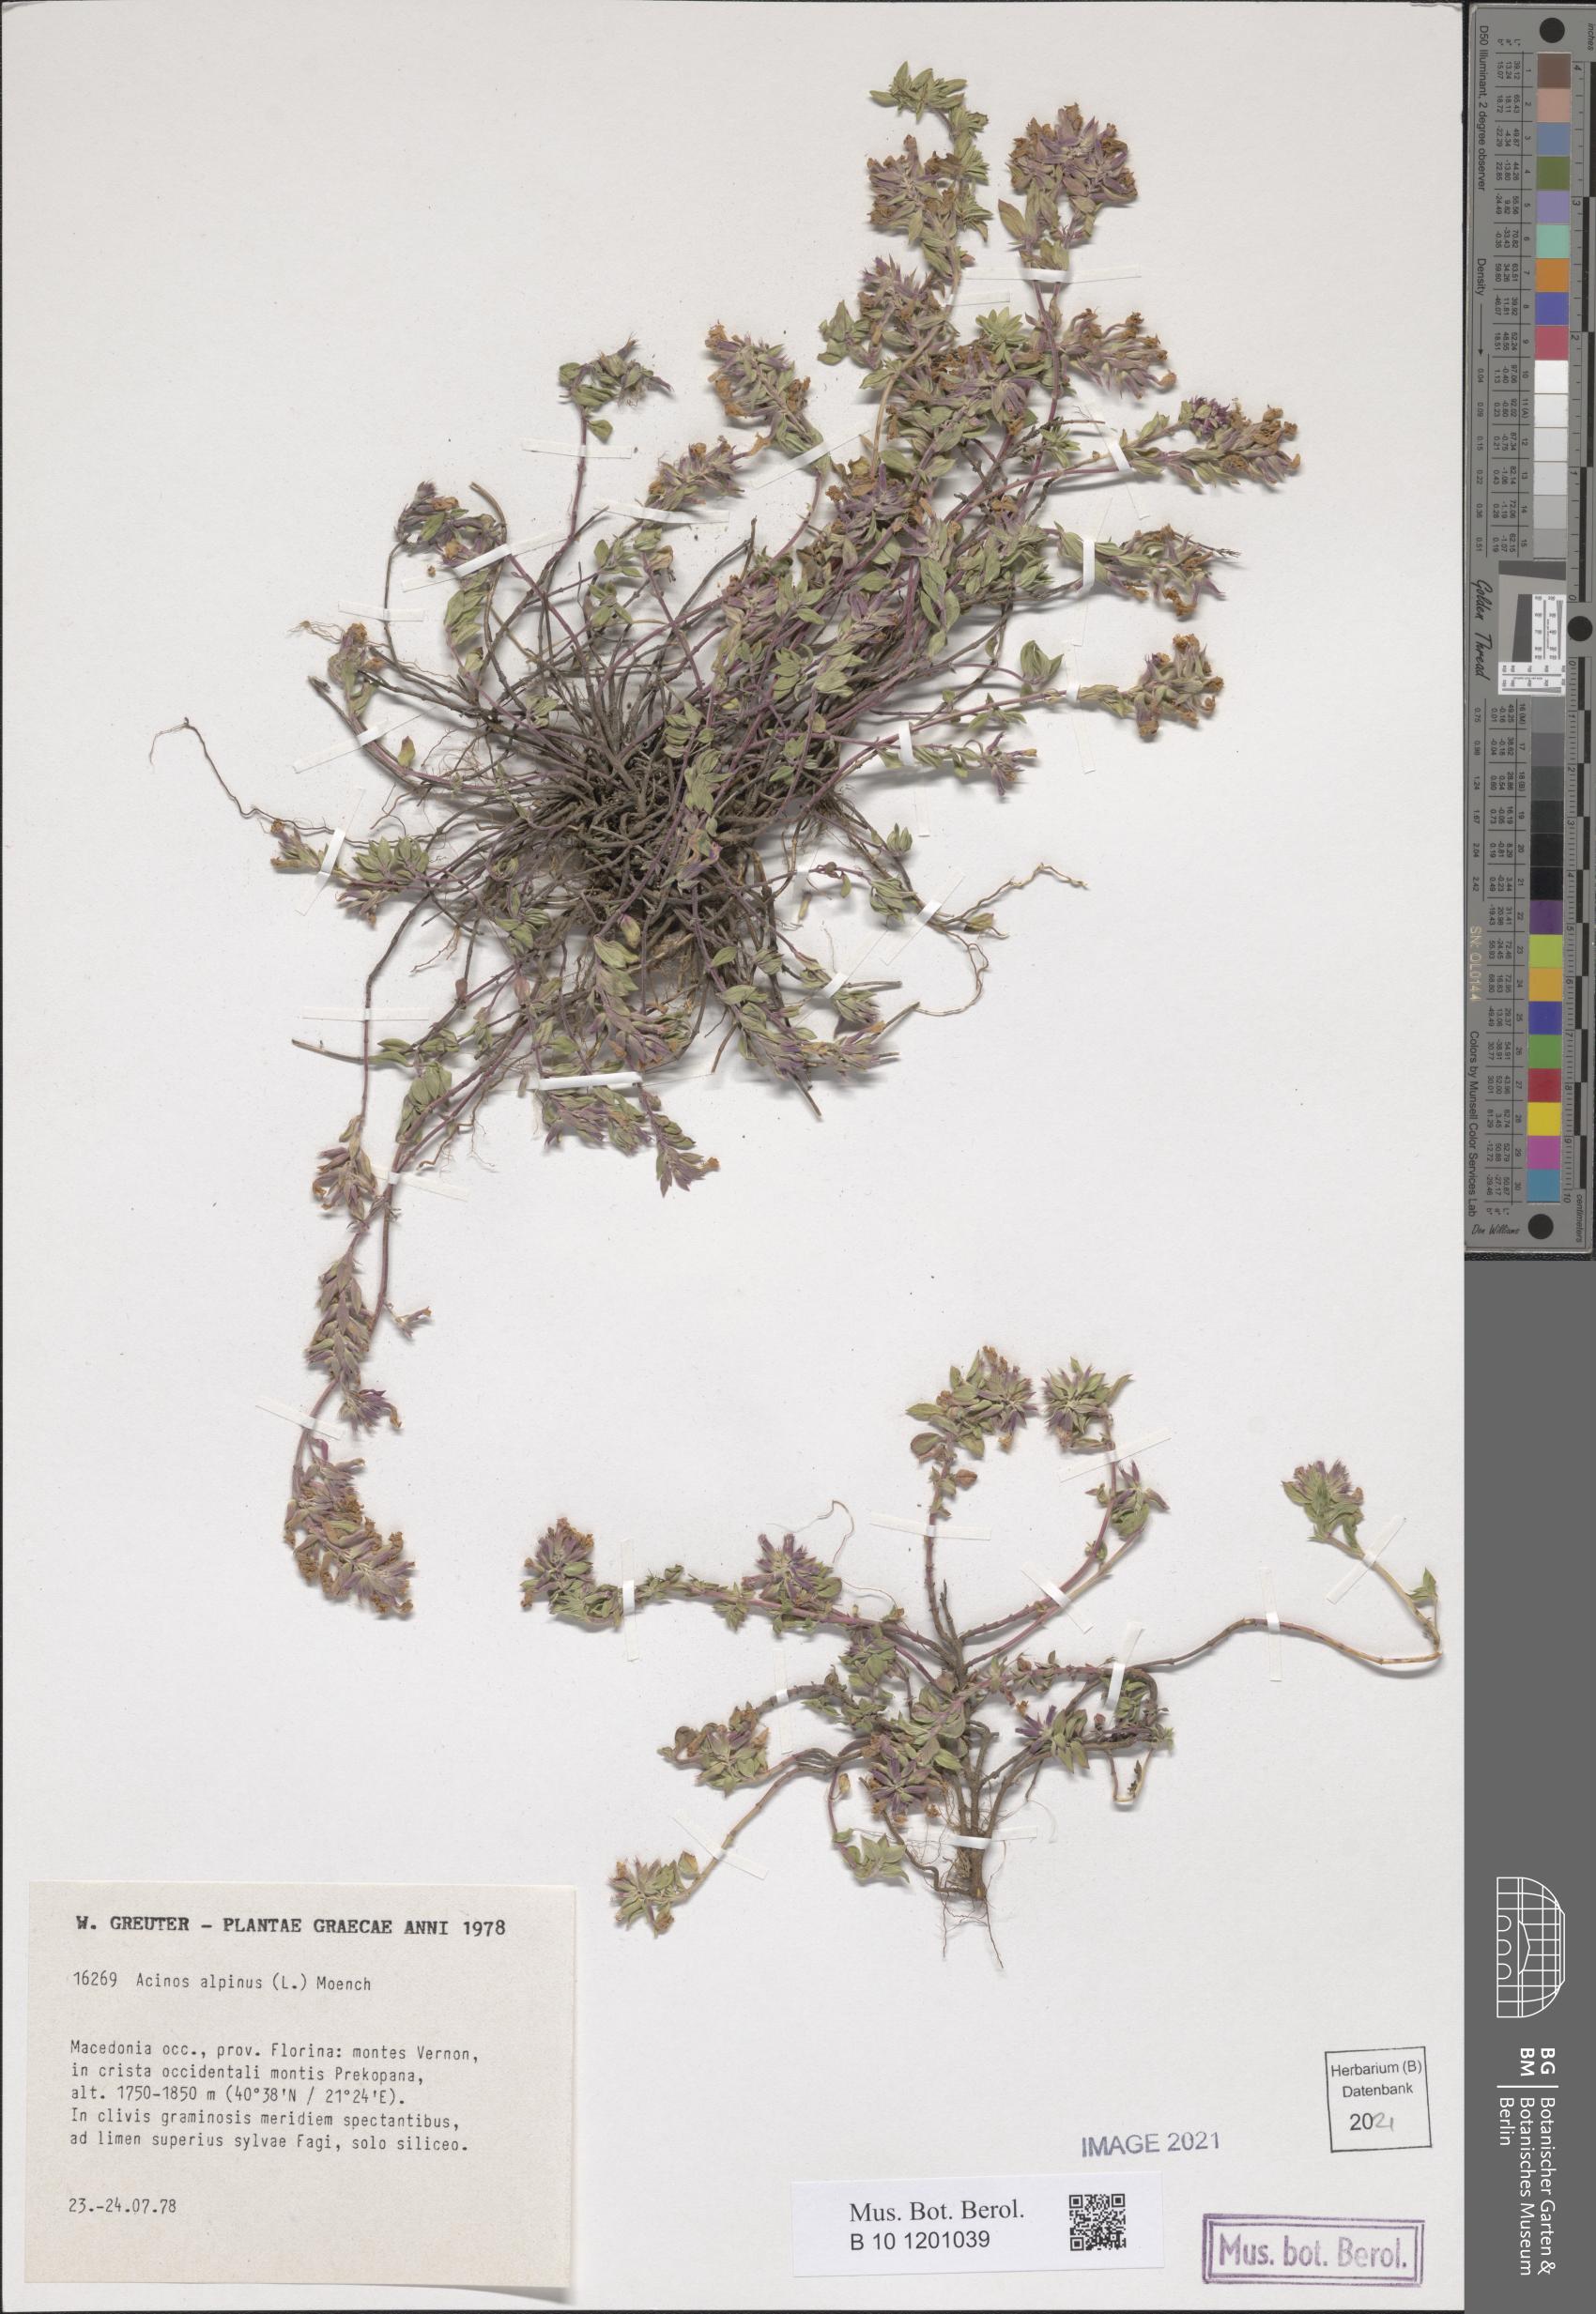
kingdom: Plantae
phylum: Tracheophyta
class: Magnoliopsida
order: Lamiales
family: Lamiaceae
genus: Clinopodium
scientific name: Clinopodium alpinum
